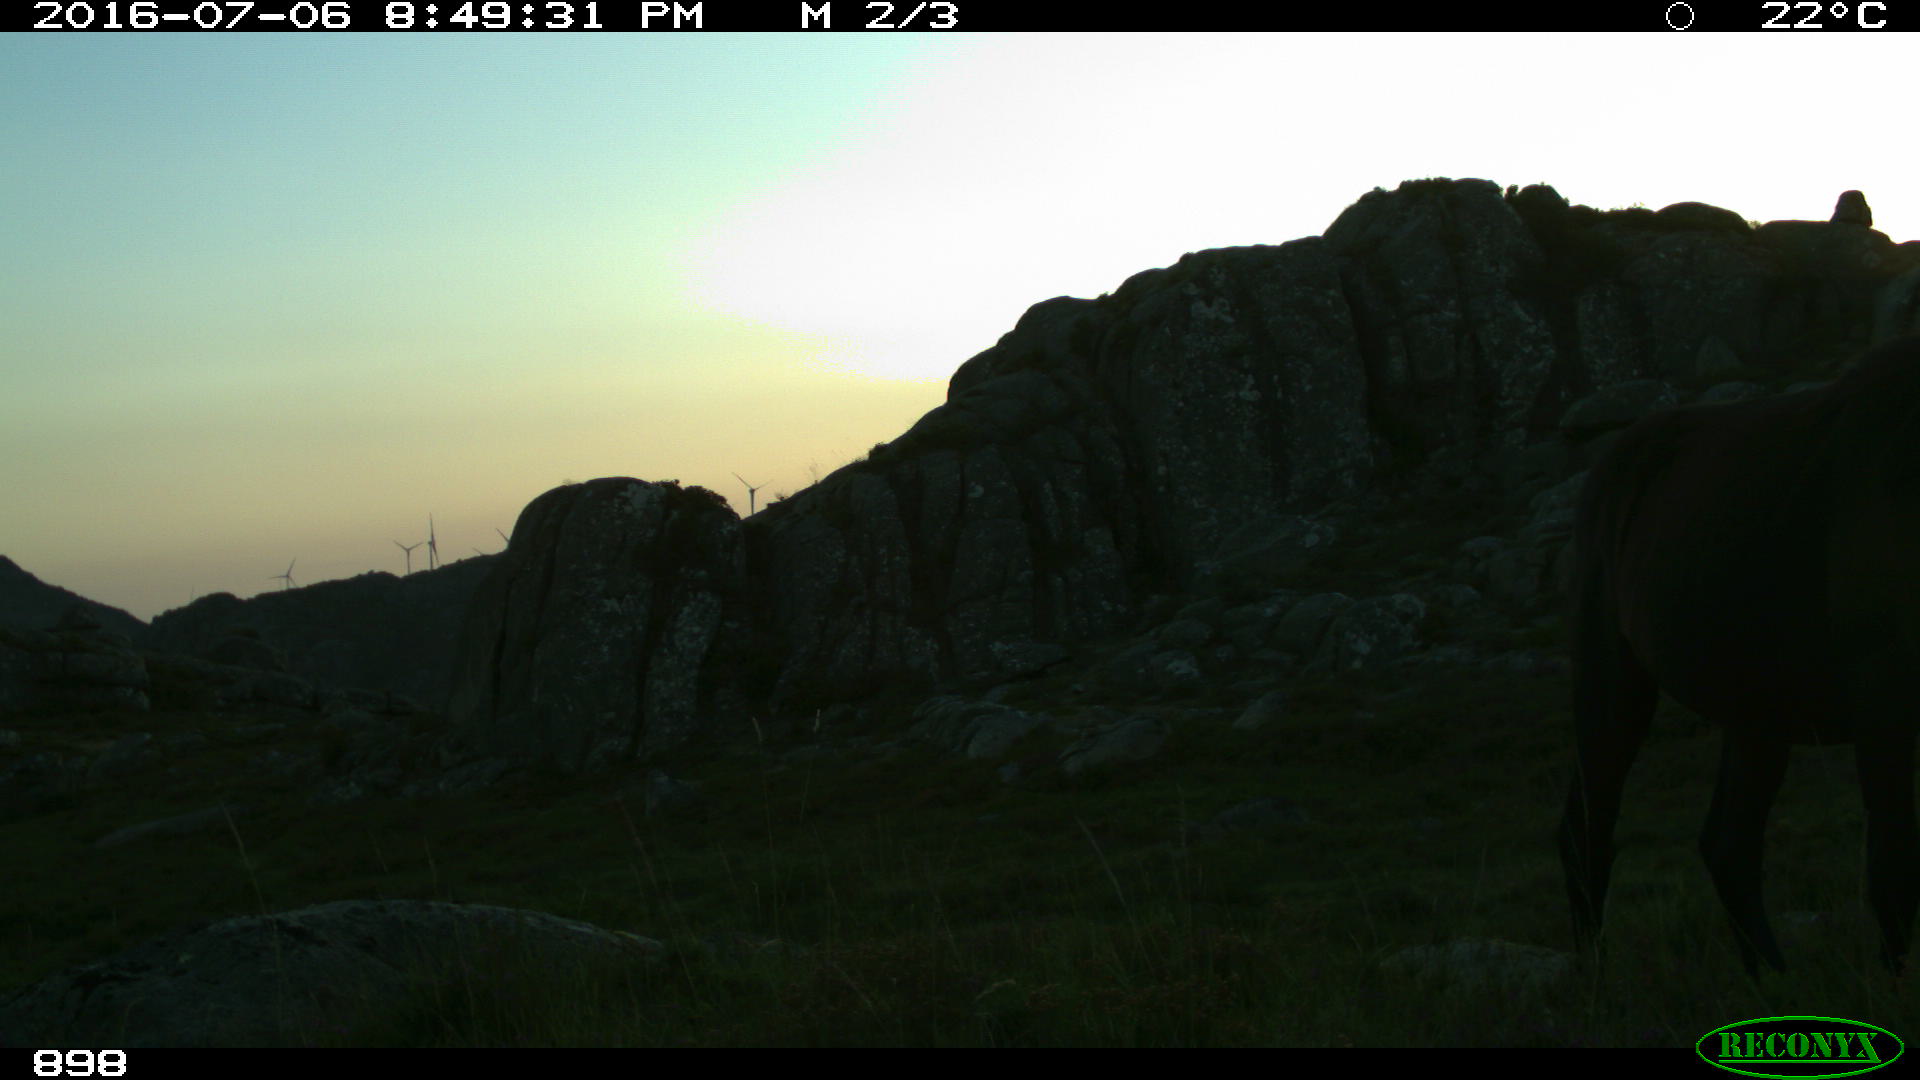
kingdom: Animalia
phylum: Chordata
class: Mammalia
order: Perissodactyla
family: Equidae
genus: Equus
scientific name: Equus caballus
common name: Horse
